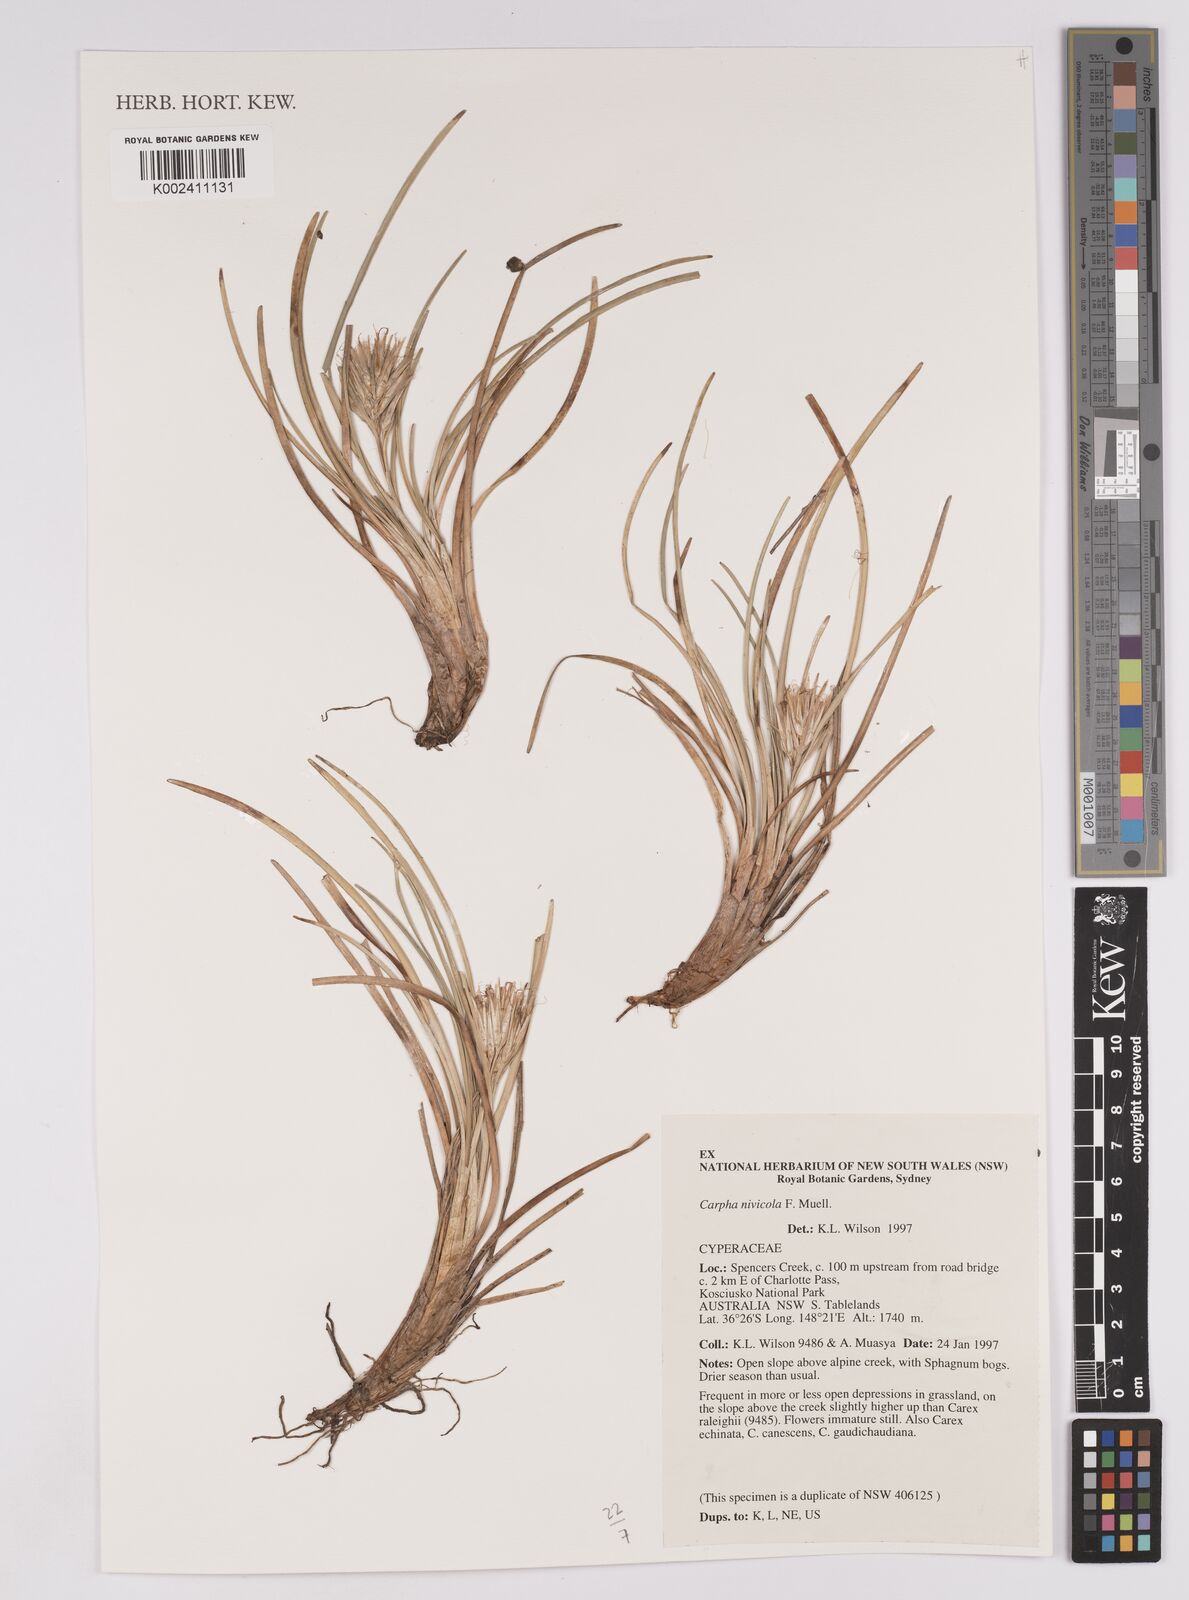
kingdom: Plantae
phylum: Tracheophyta
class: Liliopsida
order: Poales
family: Cyperaceae
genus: Carpha
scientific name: Carpha alpina
